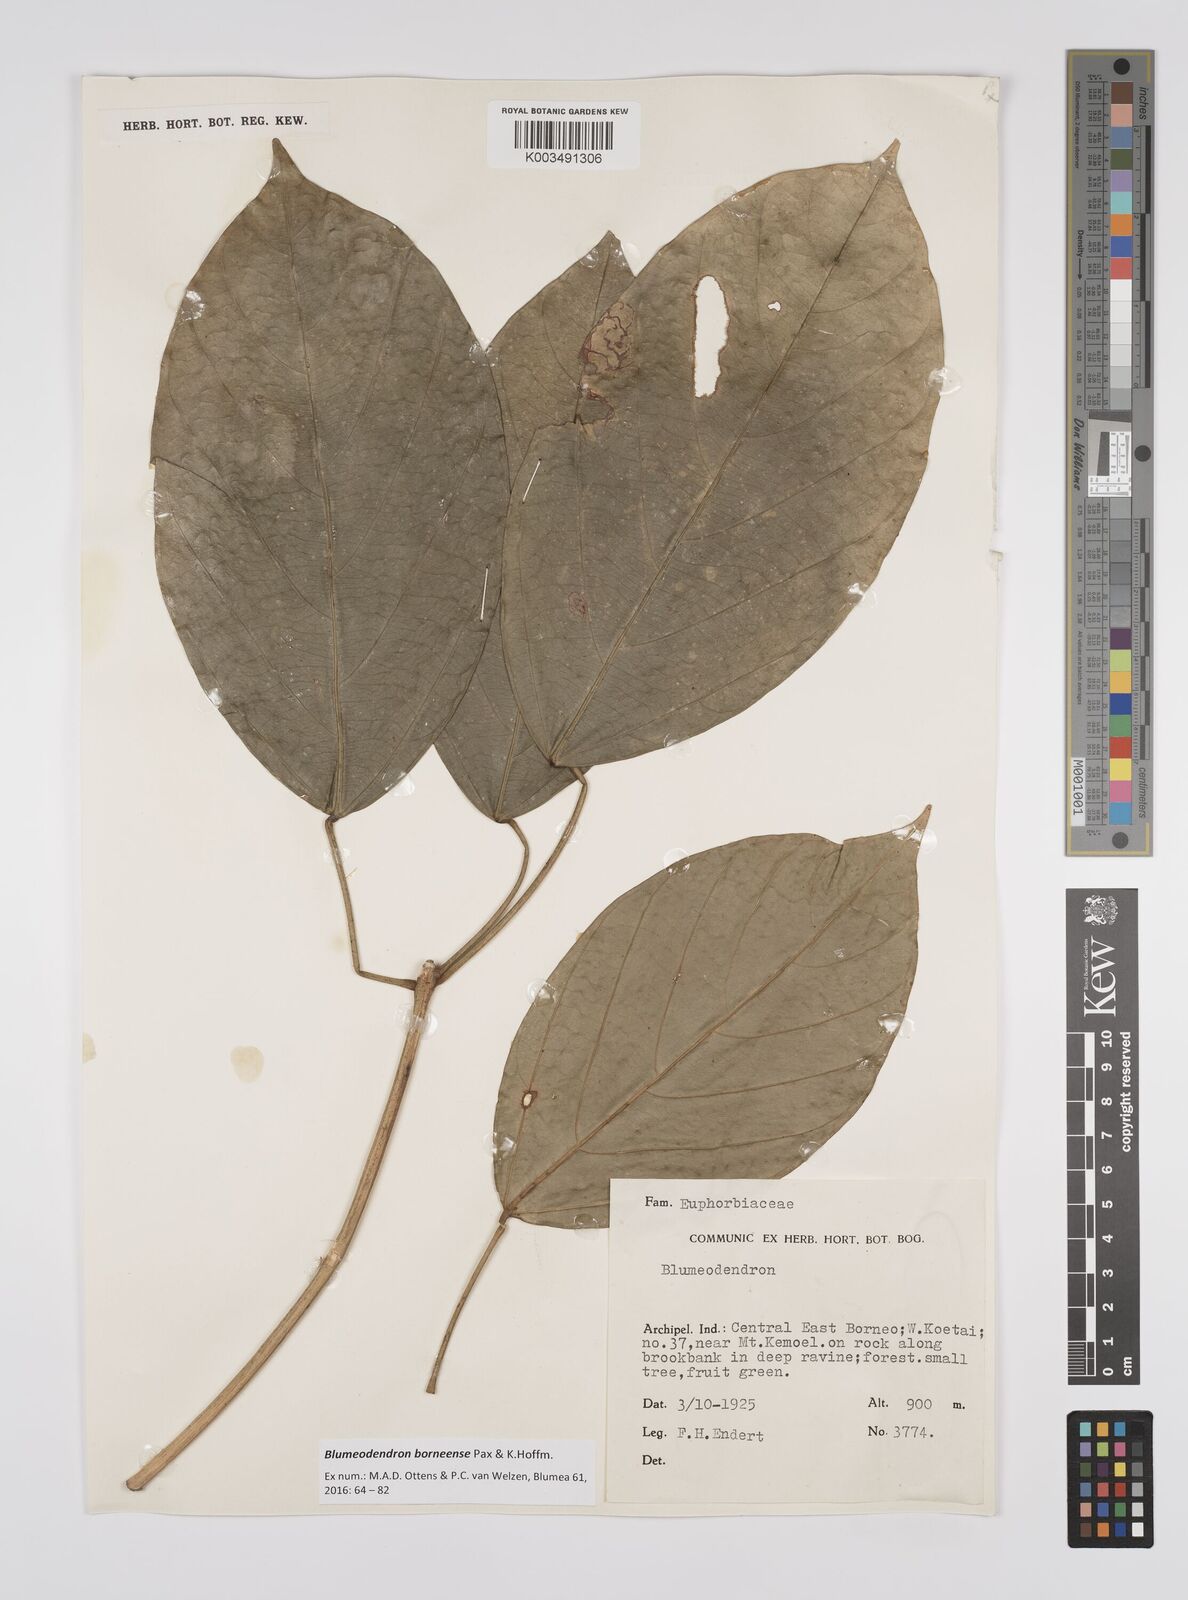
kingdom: Plantae
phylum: Tracheophyta
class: Magnoliopsida
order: Malpighiales
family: Euphorbiaceae
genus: Blumeodendron
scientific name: Blumeodendron borneense
